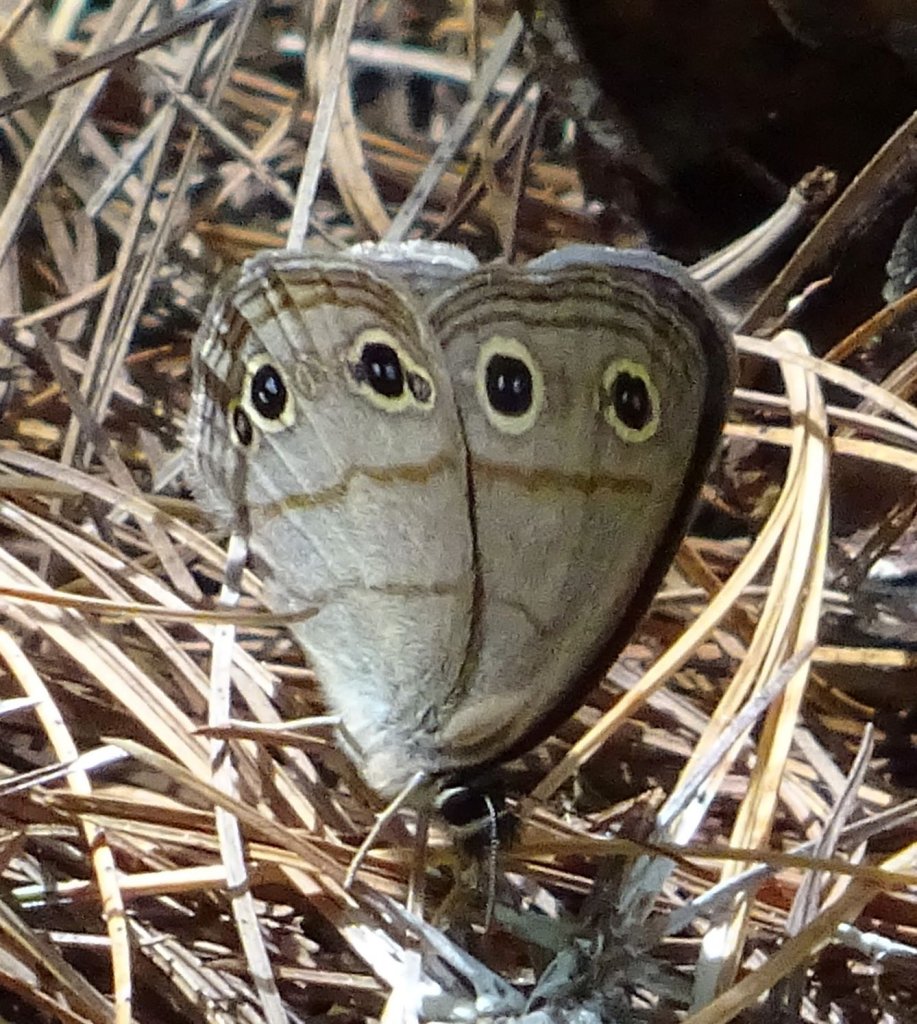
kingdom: Animalia
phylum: Arthropoda
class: Insecta
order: Lepidoptera
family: Nymphalidae
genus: Euptychia
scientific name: Euptychia cymela
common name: Little Wood Satyr
